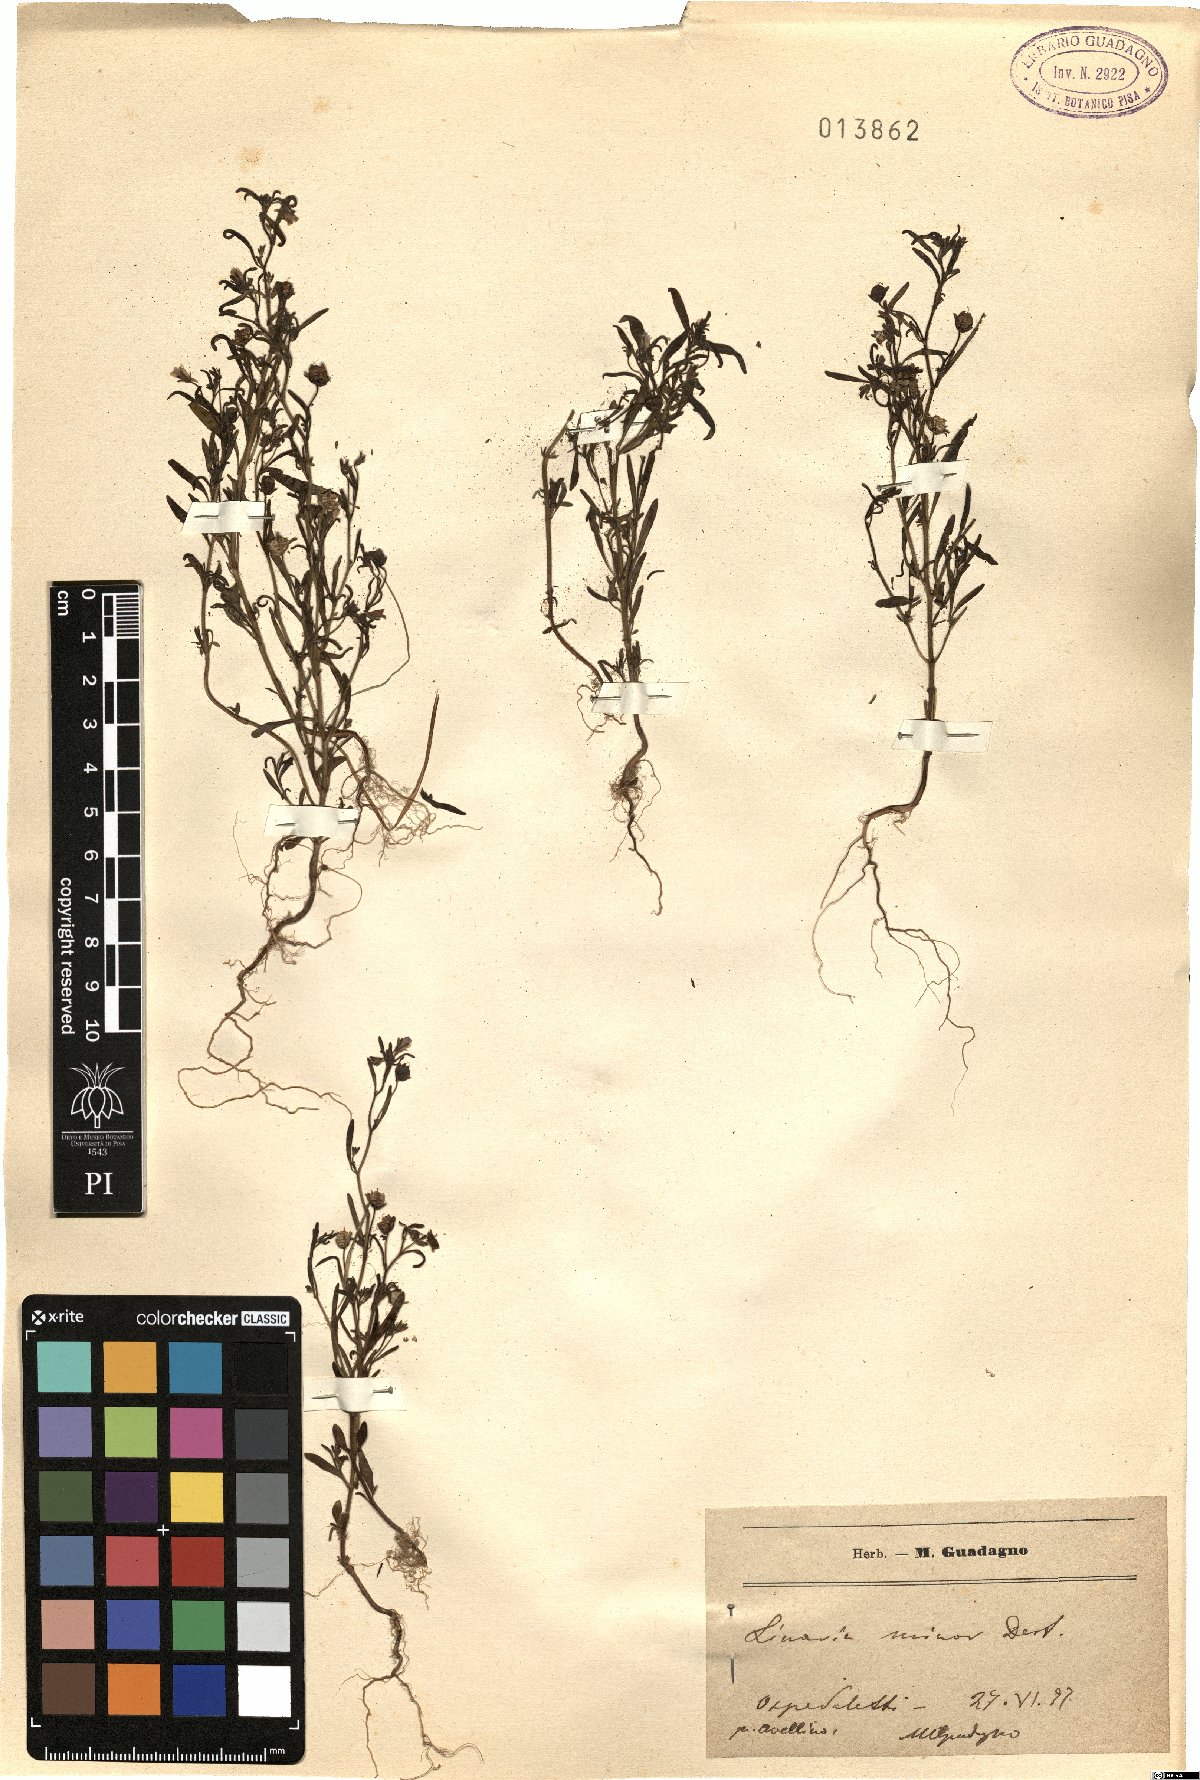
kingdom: Plantae
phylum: Tracheophyta
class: Magnoliopsida
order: Lamiales
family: Plantaginaceae
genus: Chaenorhinum
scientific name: Chaenorhinum minus
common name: Dwarf snapdragon
